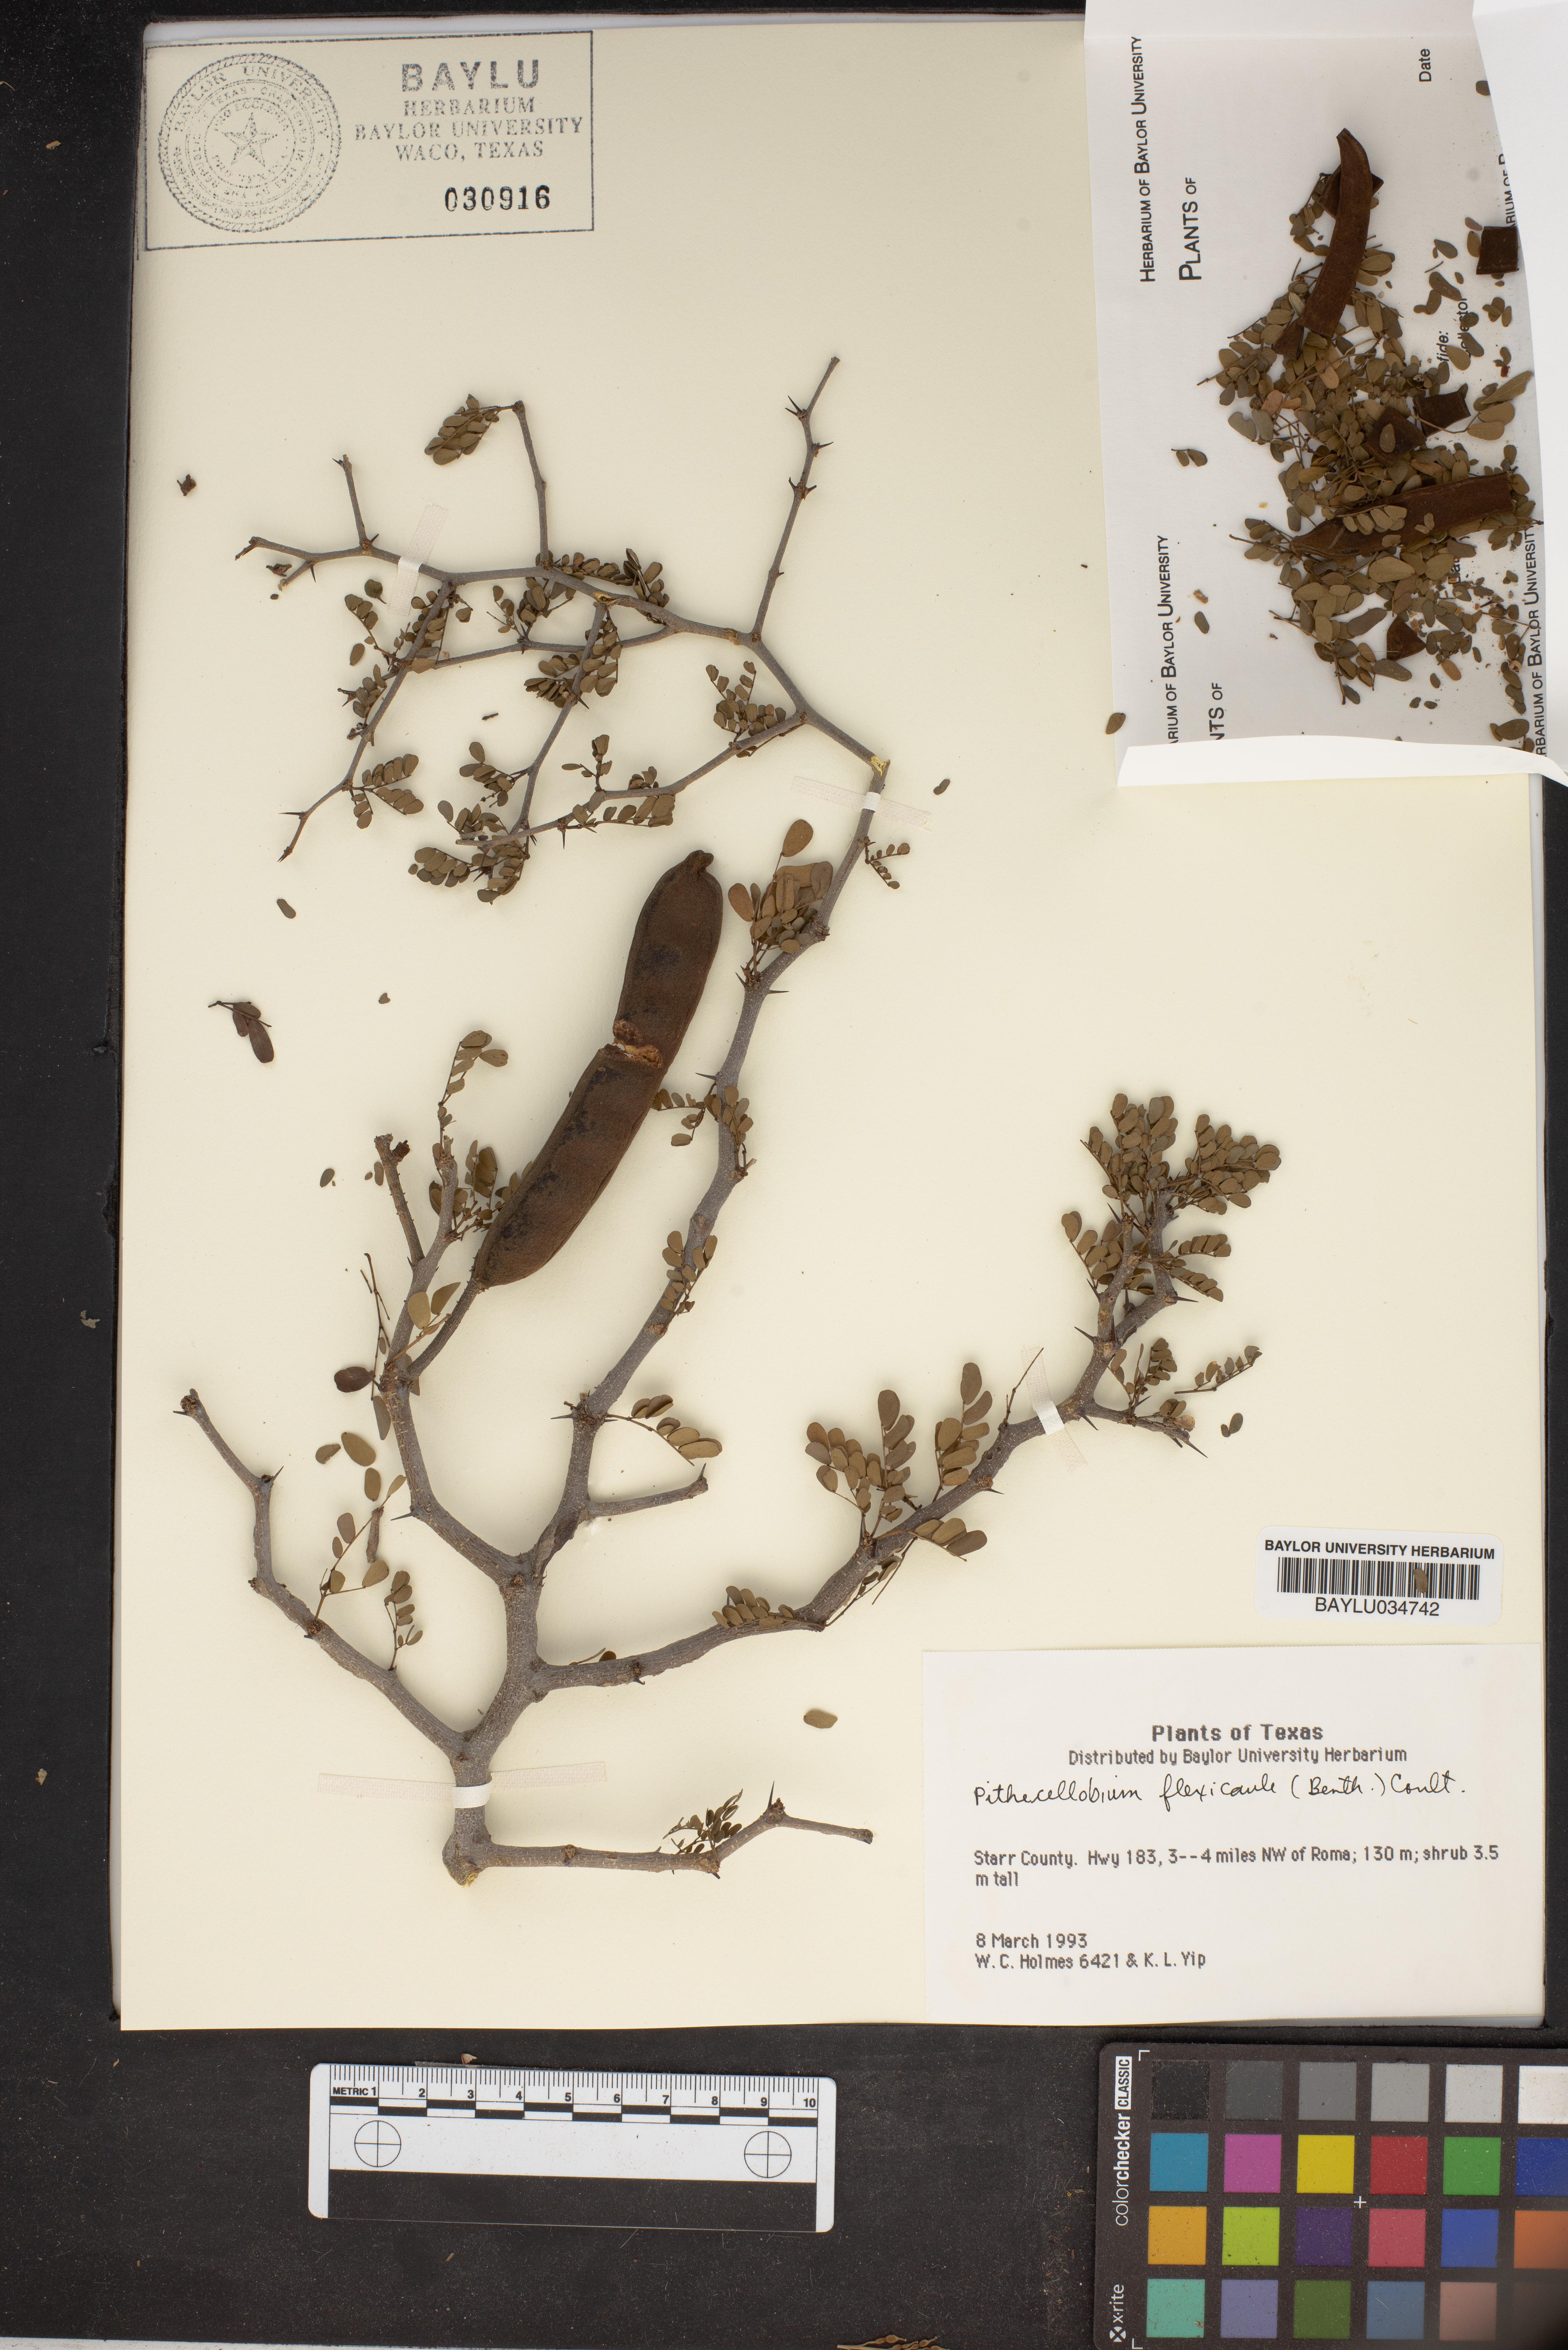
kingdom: Plantae
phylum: Tracheophyta
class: Magnoliopsida
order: Fabales
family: Fabaceae
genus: Ebenopsis
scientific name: Ebenopsis ebano
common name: Ebony blackbead
